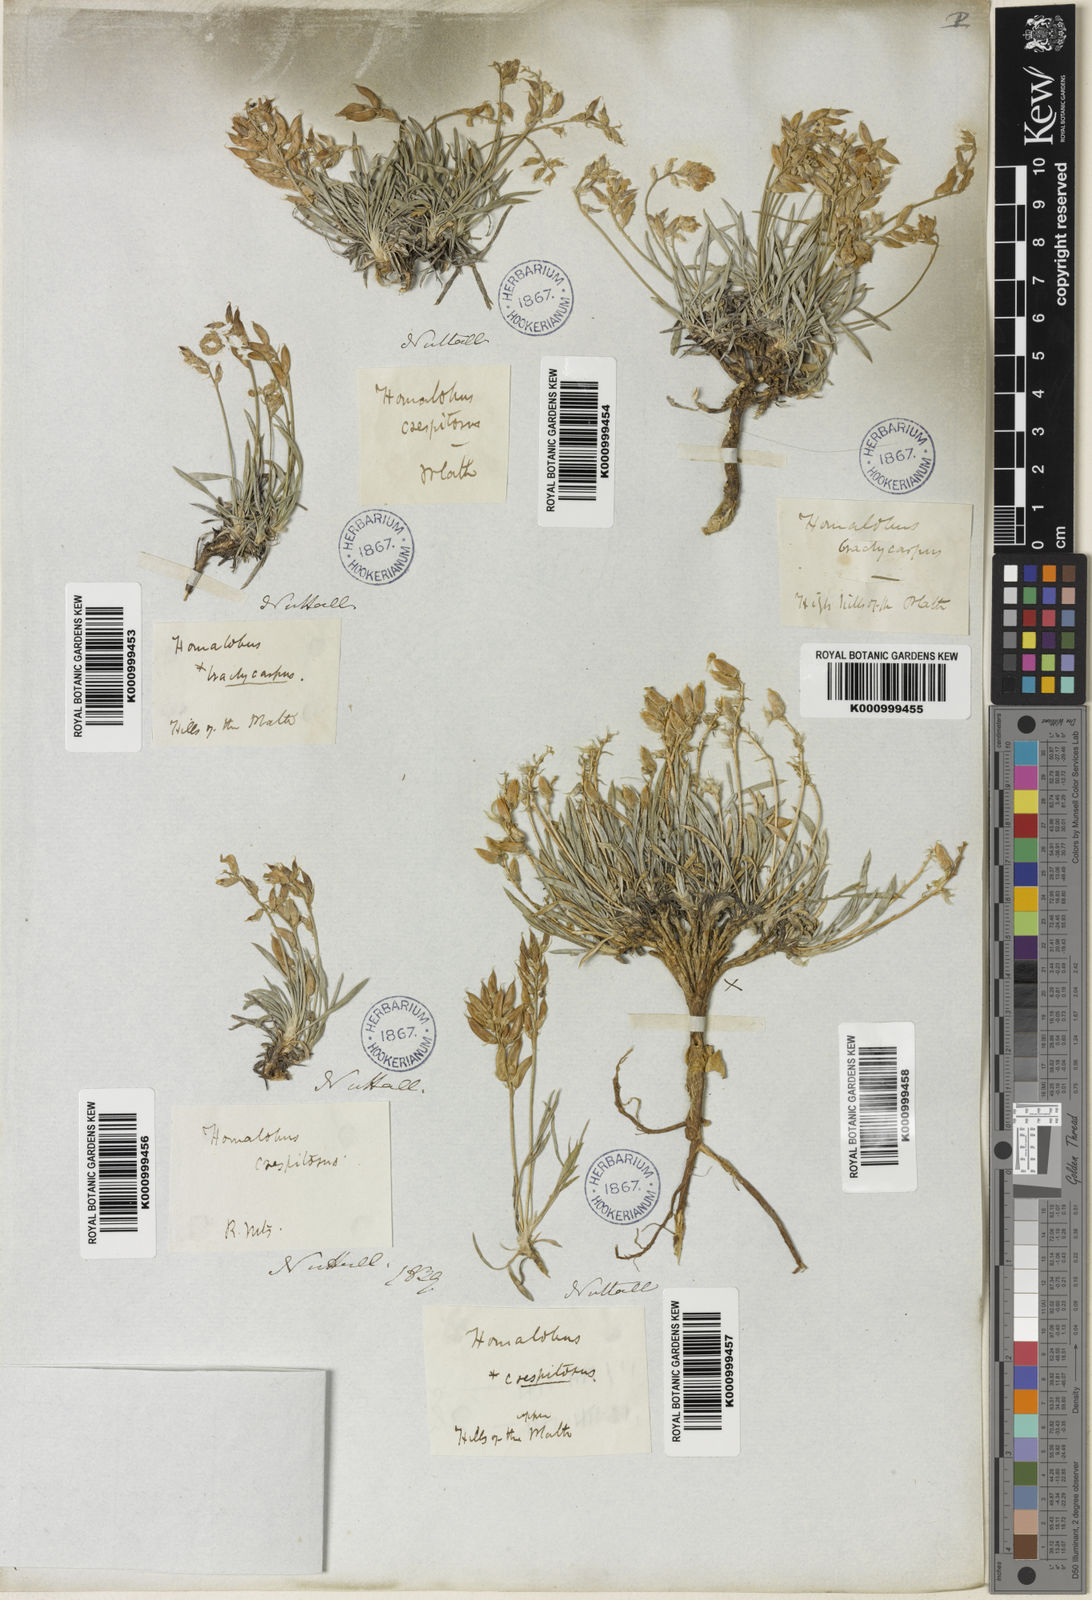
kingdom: Plantae
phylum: Tracheophyta
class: Magnoliopsida
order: Fabales
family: Fabaceae
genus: Oxytropis
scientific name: Oxytropis caespitosa
